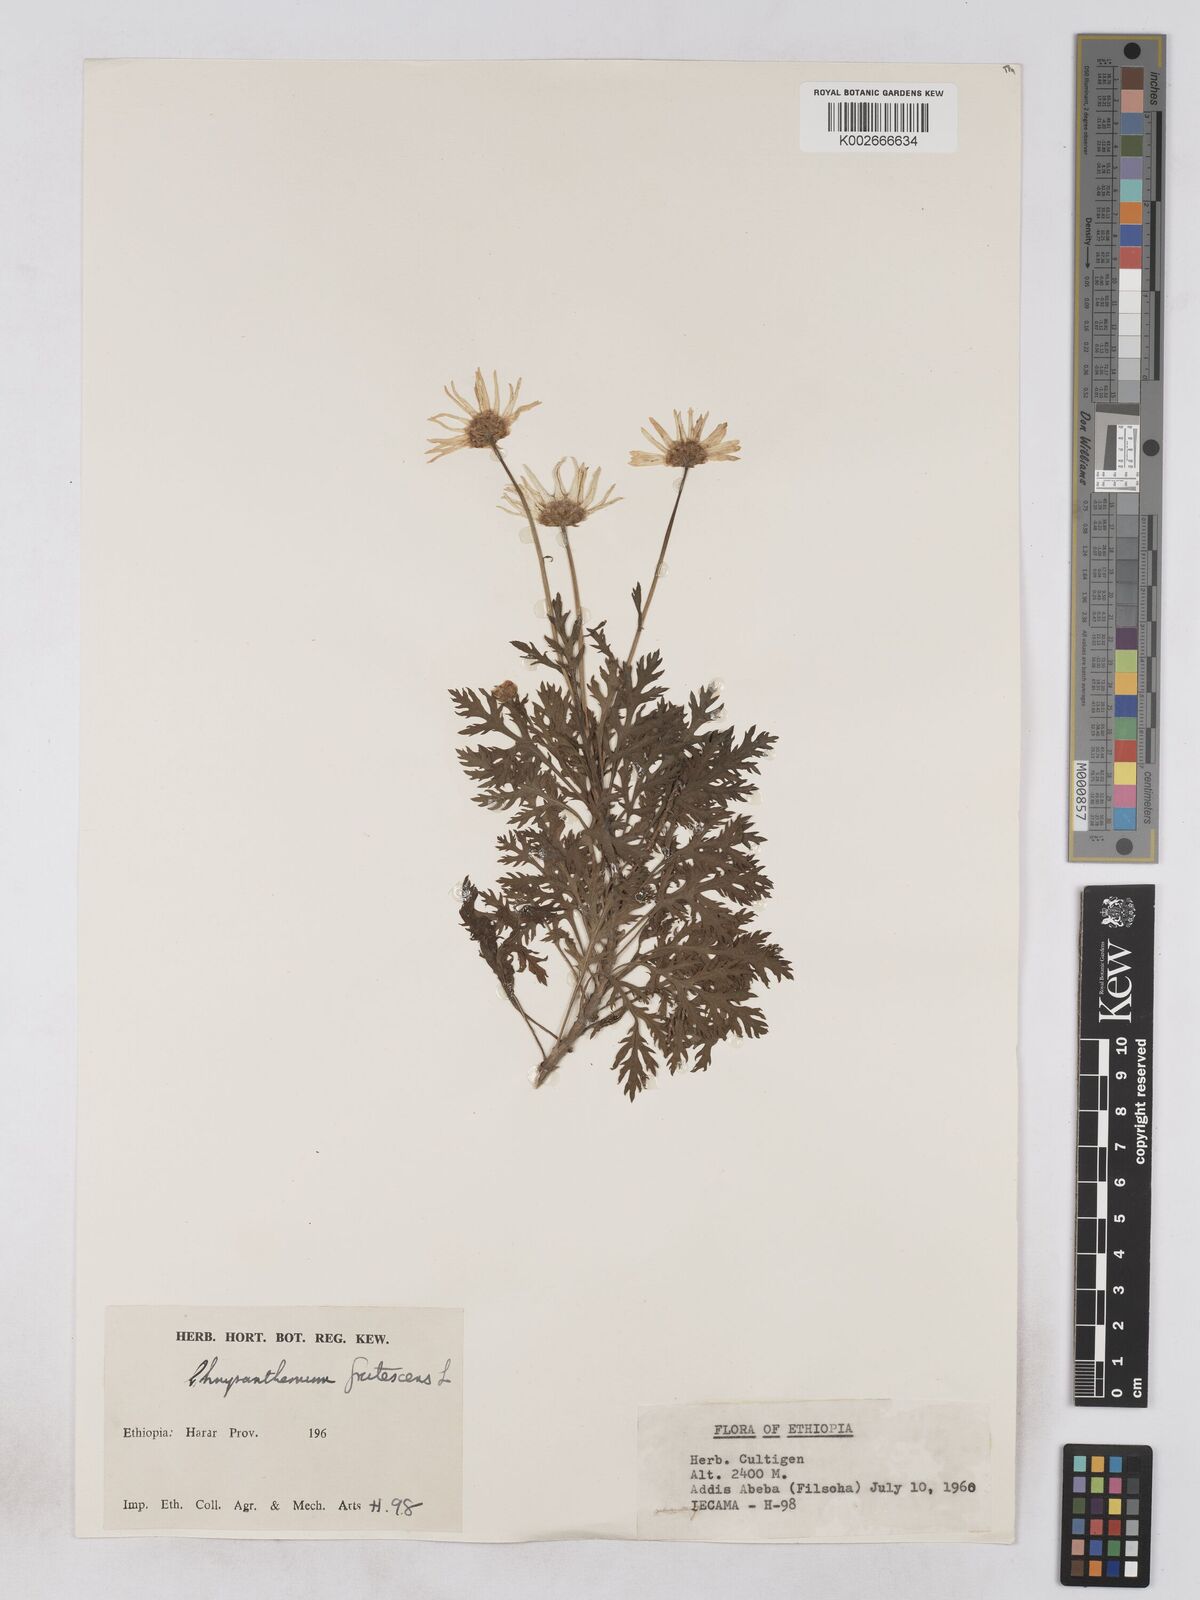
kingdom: Plantae
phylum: Tracheophyta
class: Magnoliopsida
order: Asterales
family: Asteraceae
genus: Argyranthemum
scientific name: Argyranthemum
